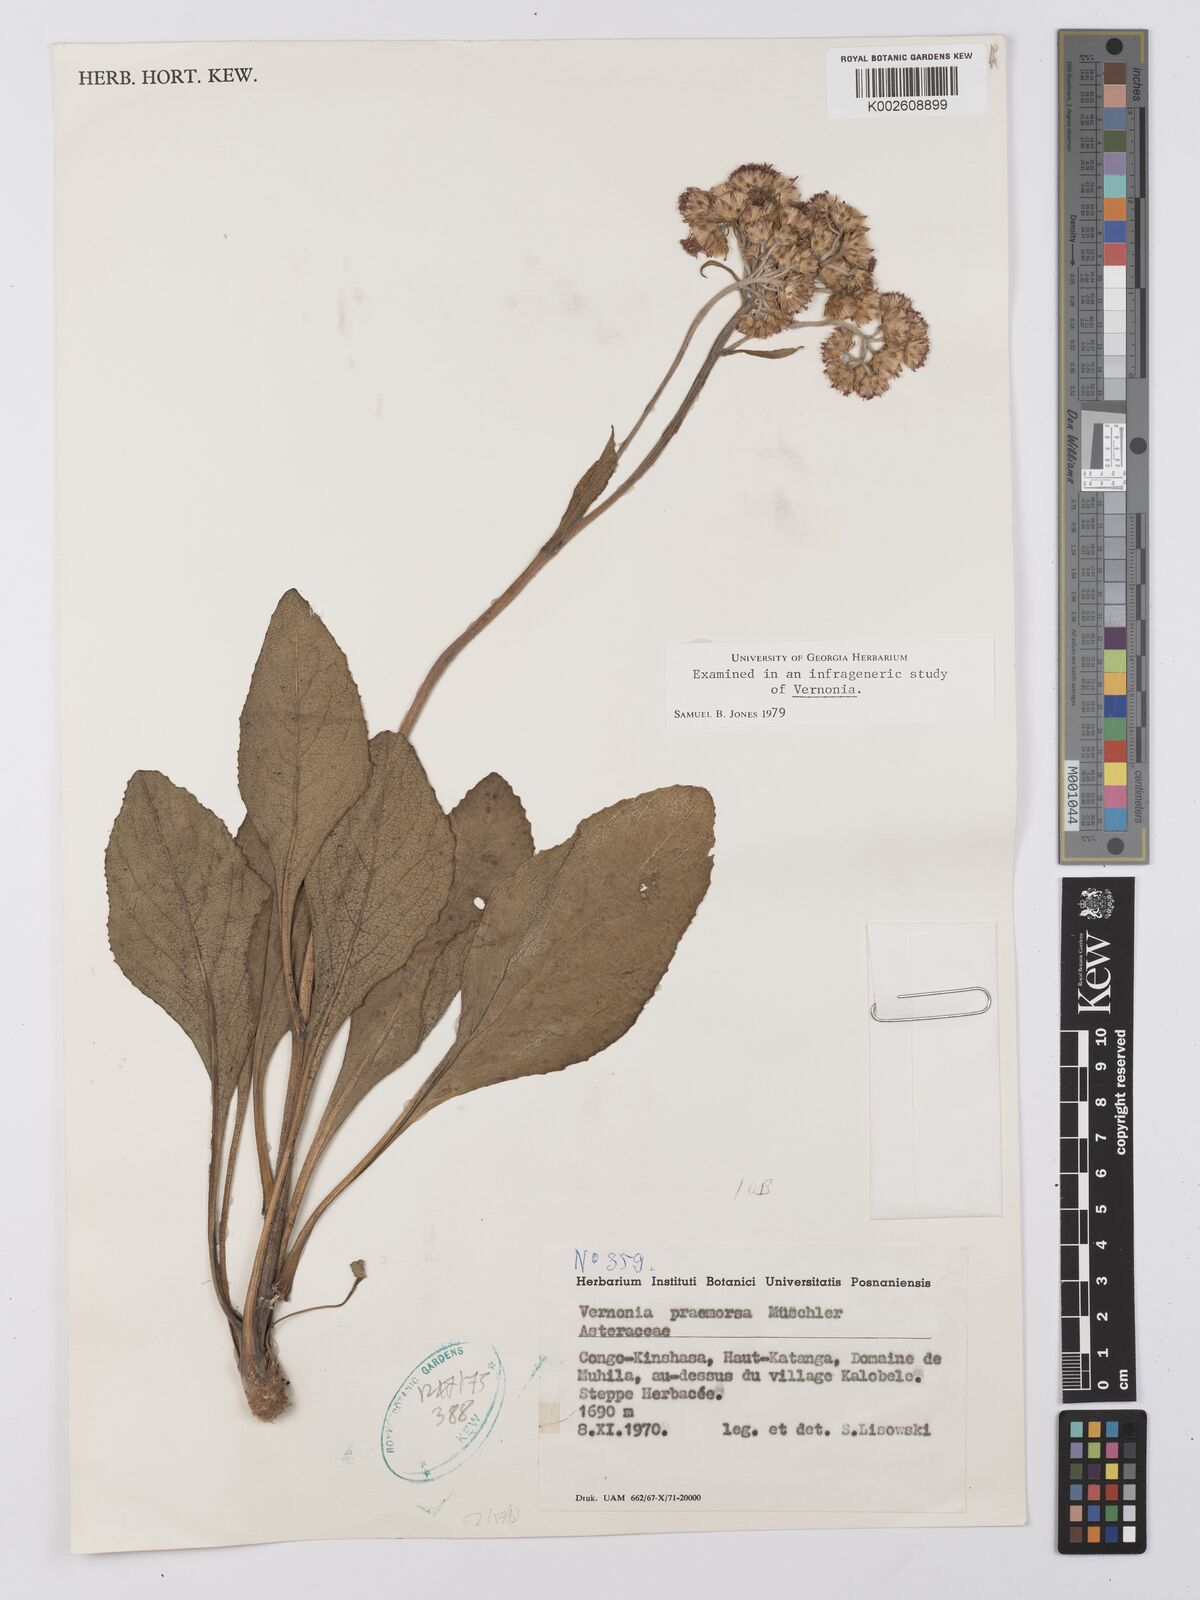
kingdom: Plantae
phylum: Tracheophyta
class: Magnoliopsida
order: Asterales
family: Asteraceae
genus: Vernonella
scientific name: Vernonella praemorsa
